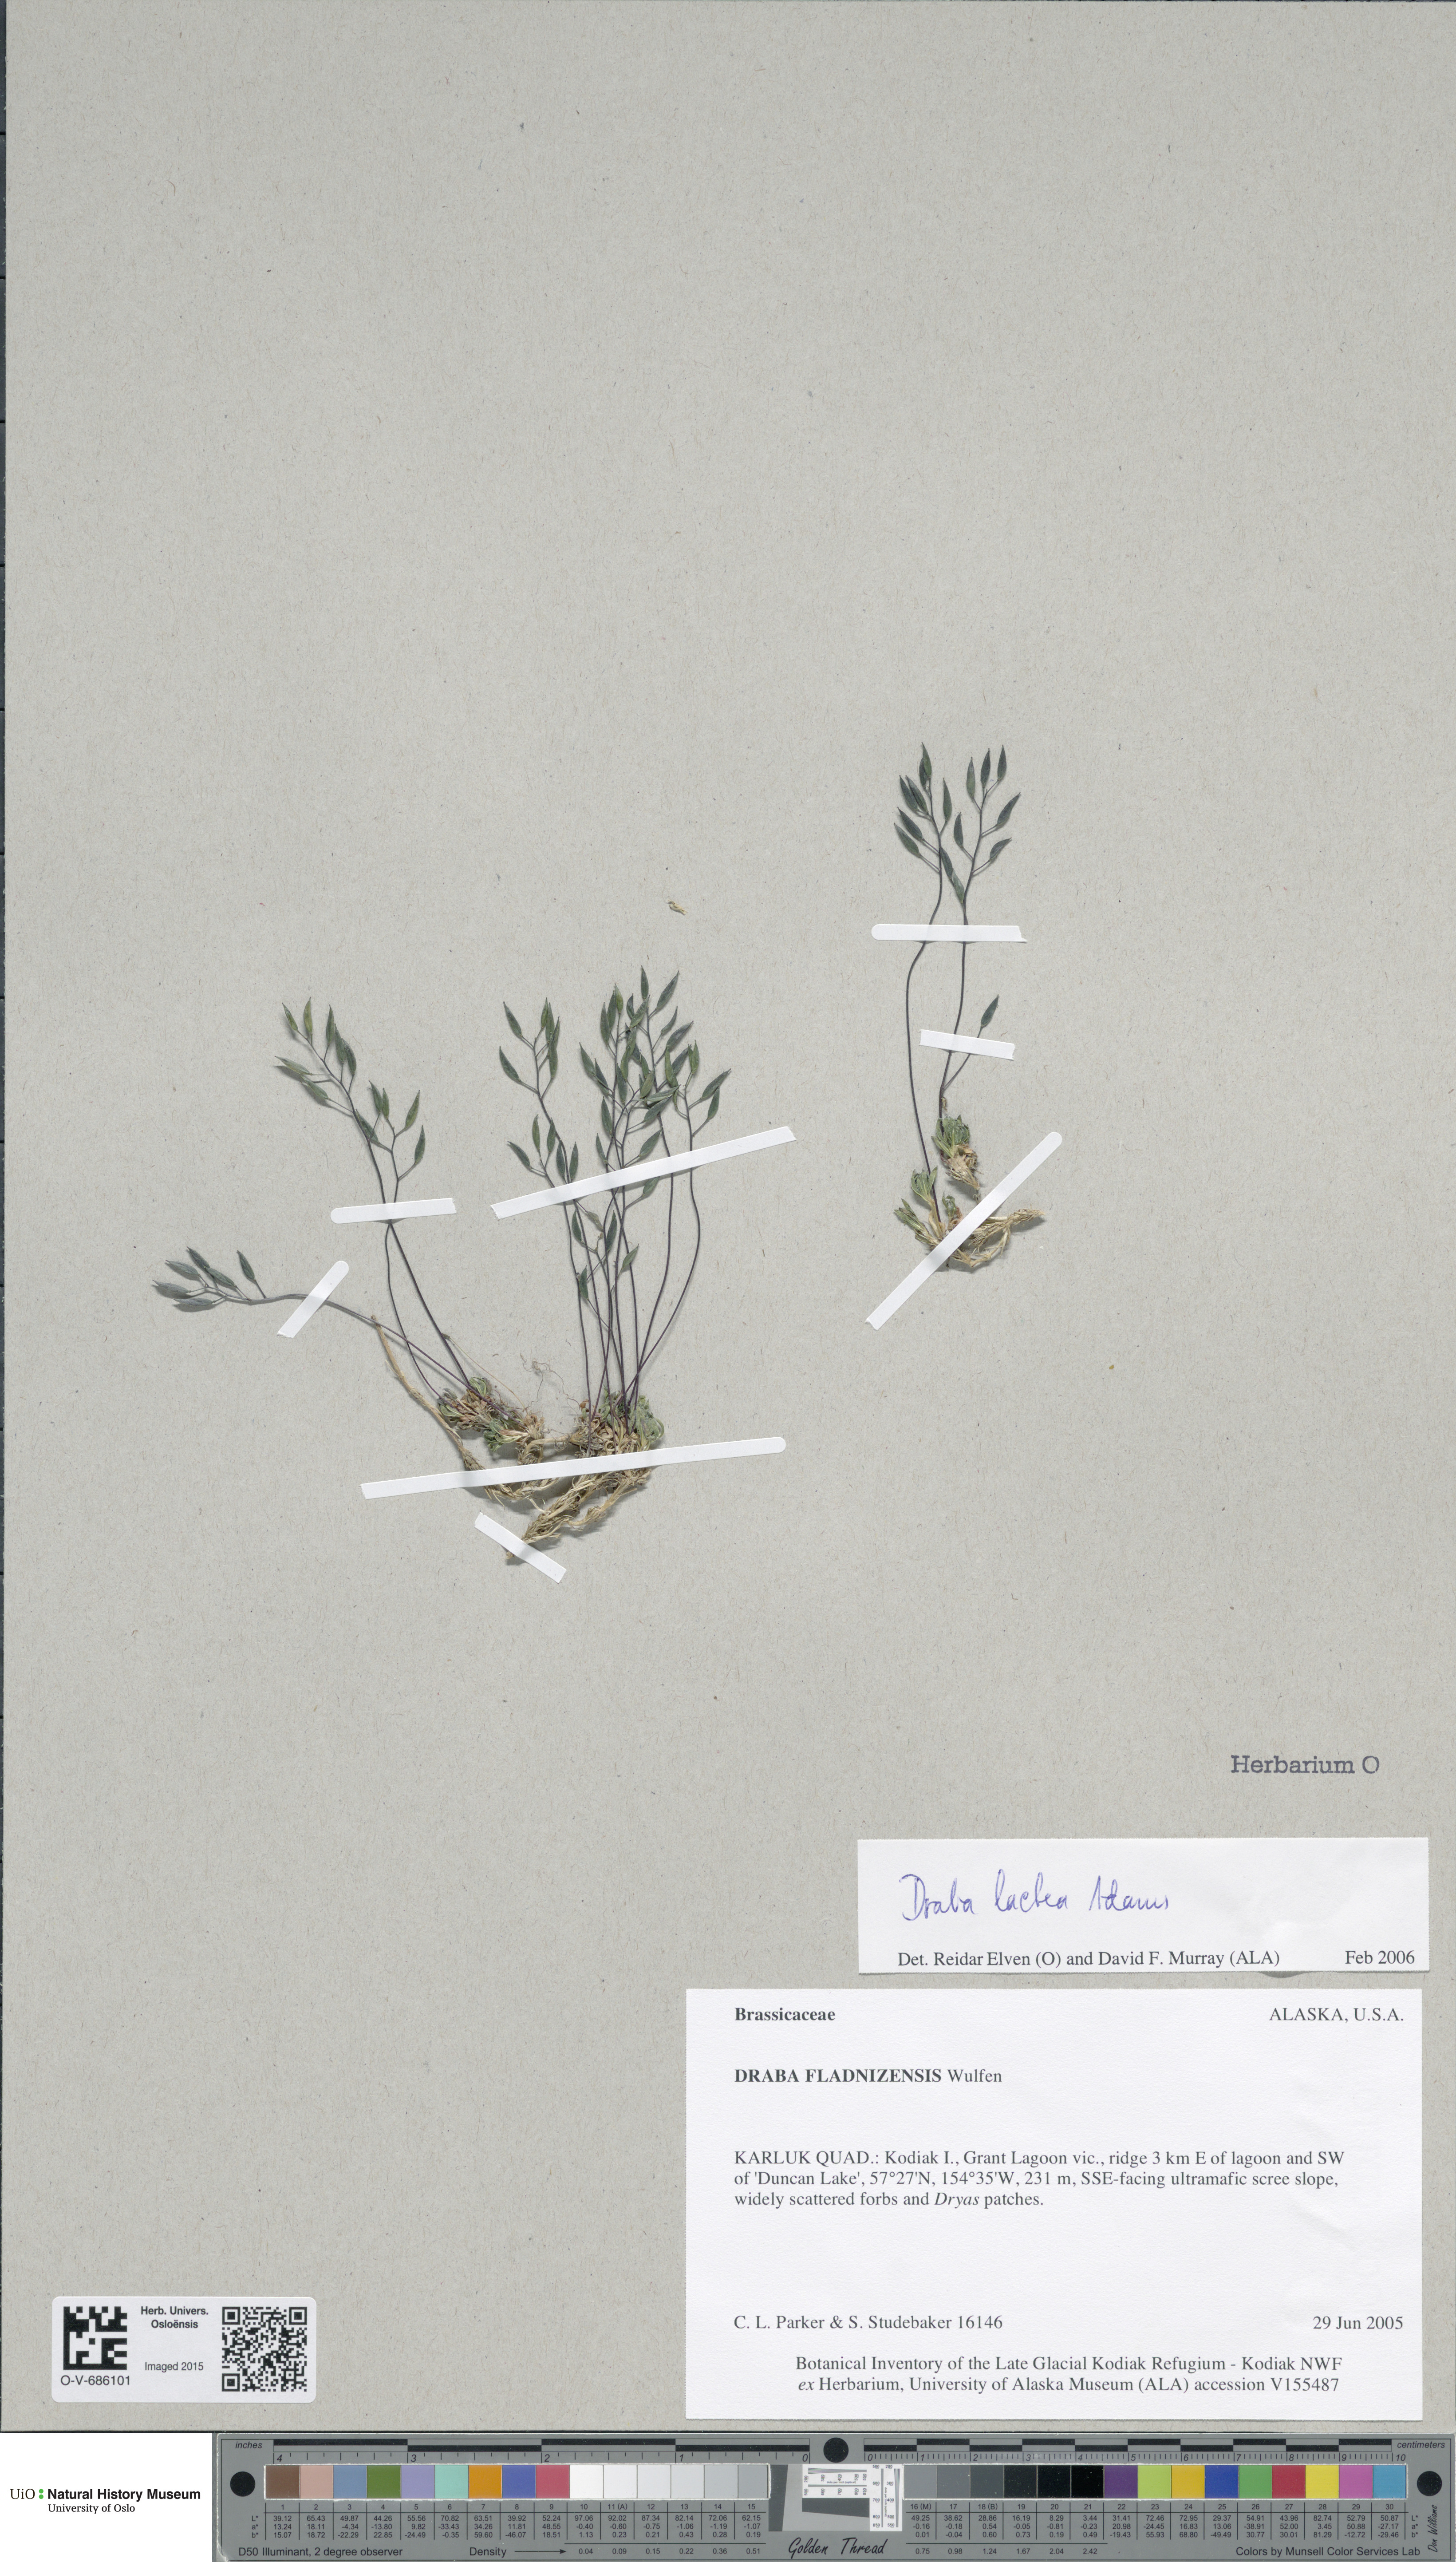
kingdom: Plantae
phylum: Tracheophyta
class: Magnoliopsida
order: Brassicales
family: Brassicaceae
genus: Draba
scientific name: Draba lactea
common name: Milky draba
